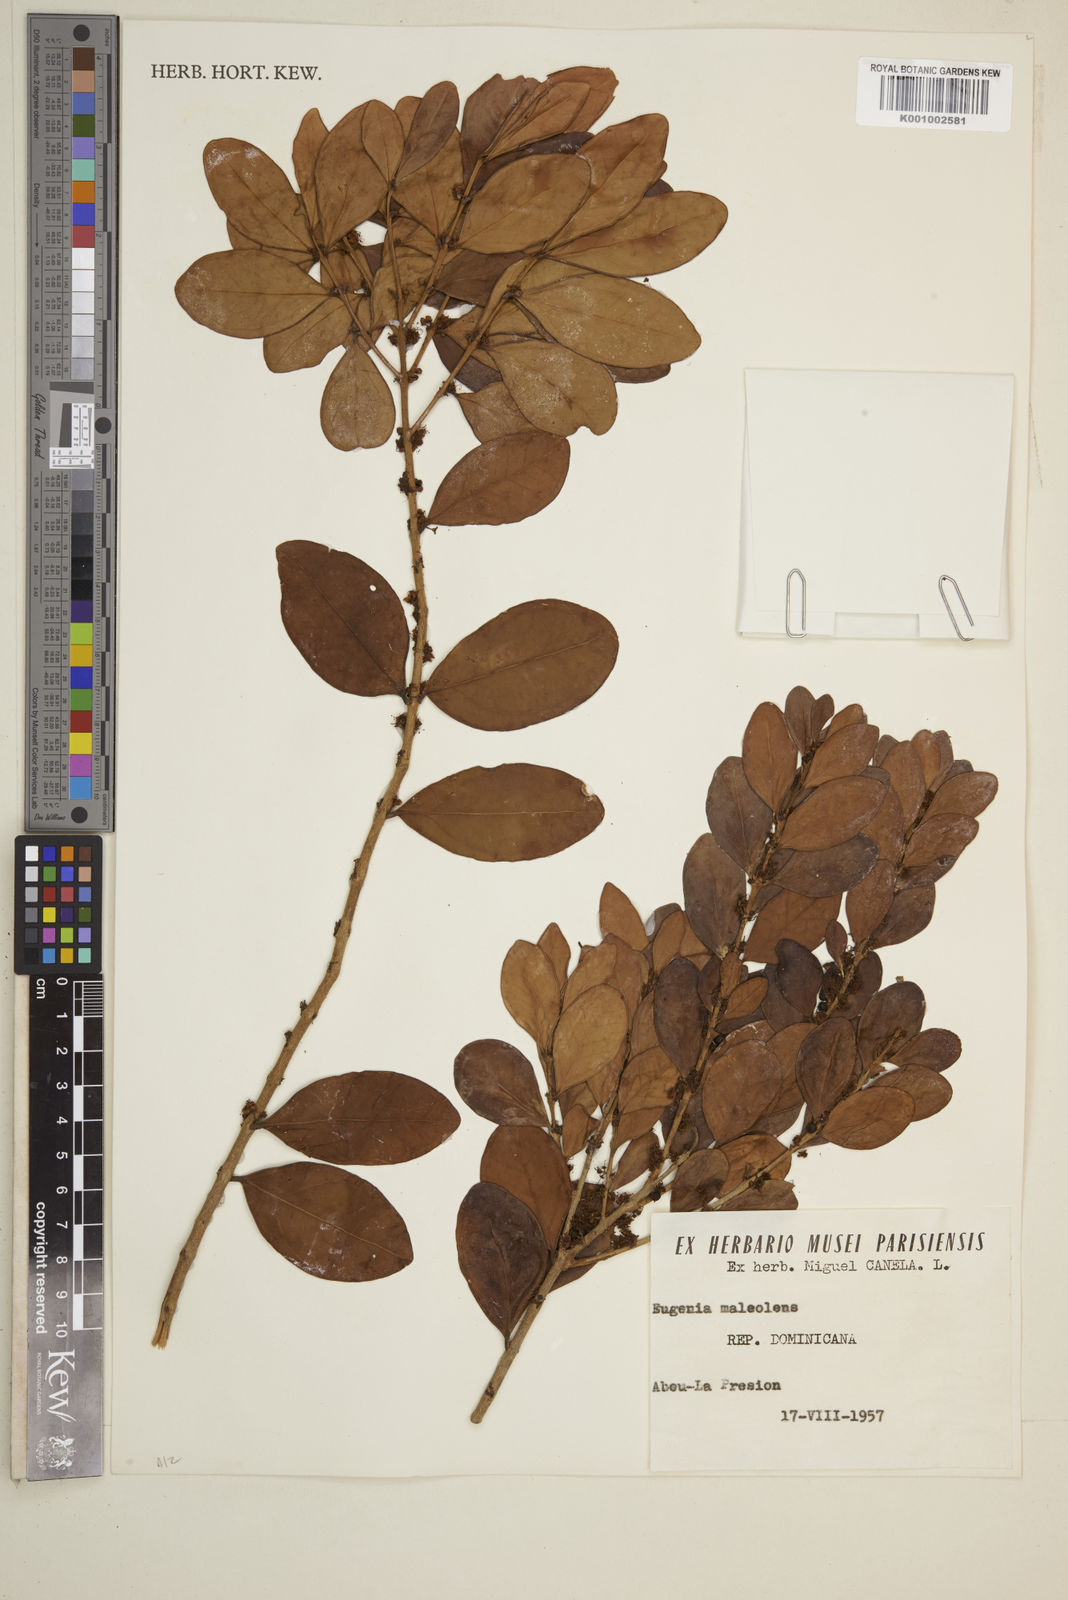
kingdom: Plantae
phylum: Tracheophyta
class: Magnoliopsida
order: Myrtales
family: Myrtaceae
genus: Eugenia
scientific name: Eugenia monticola
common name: Birds berry
